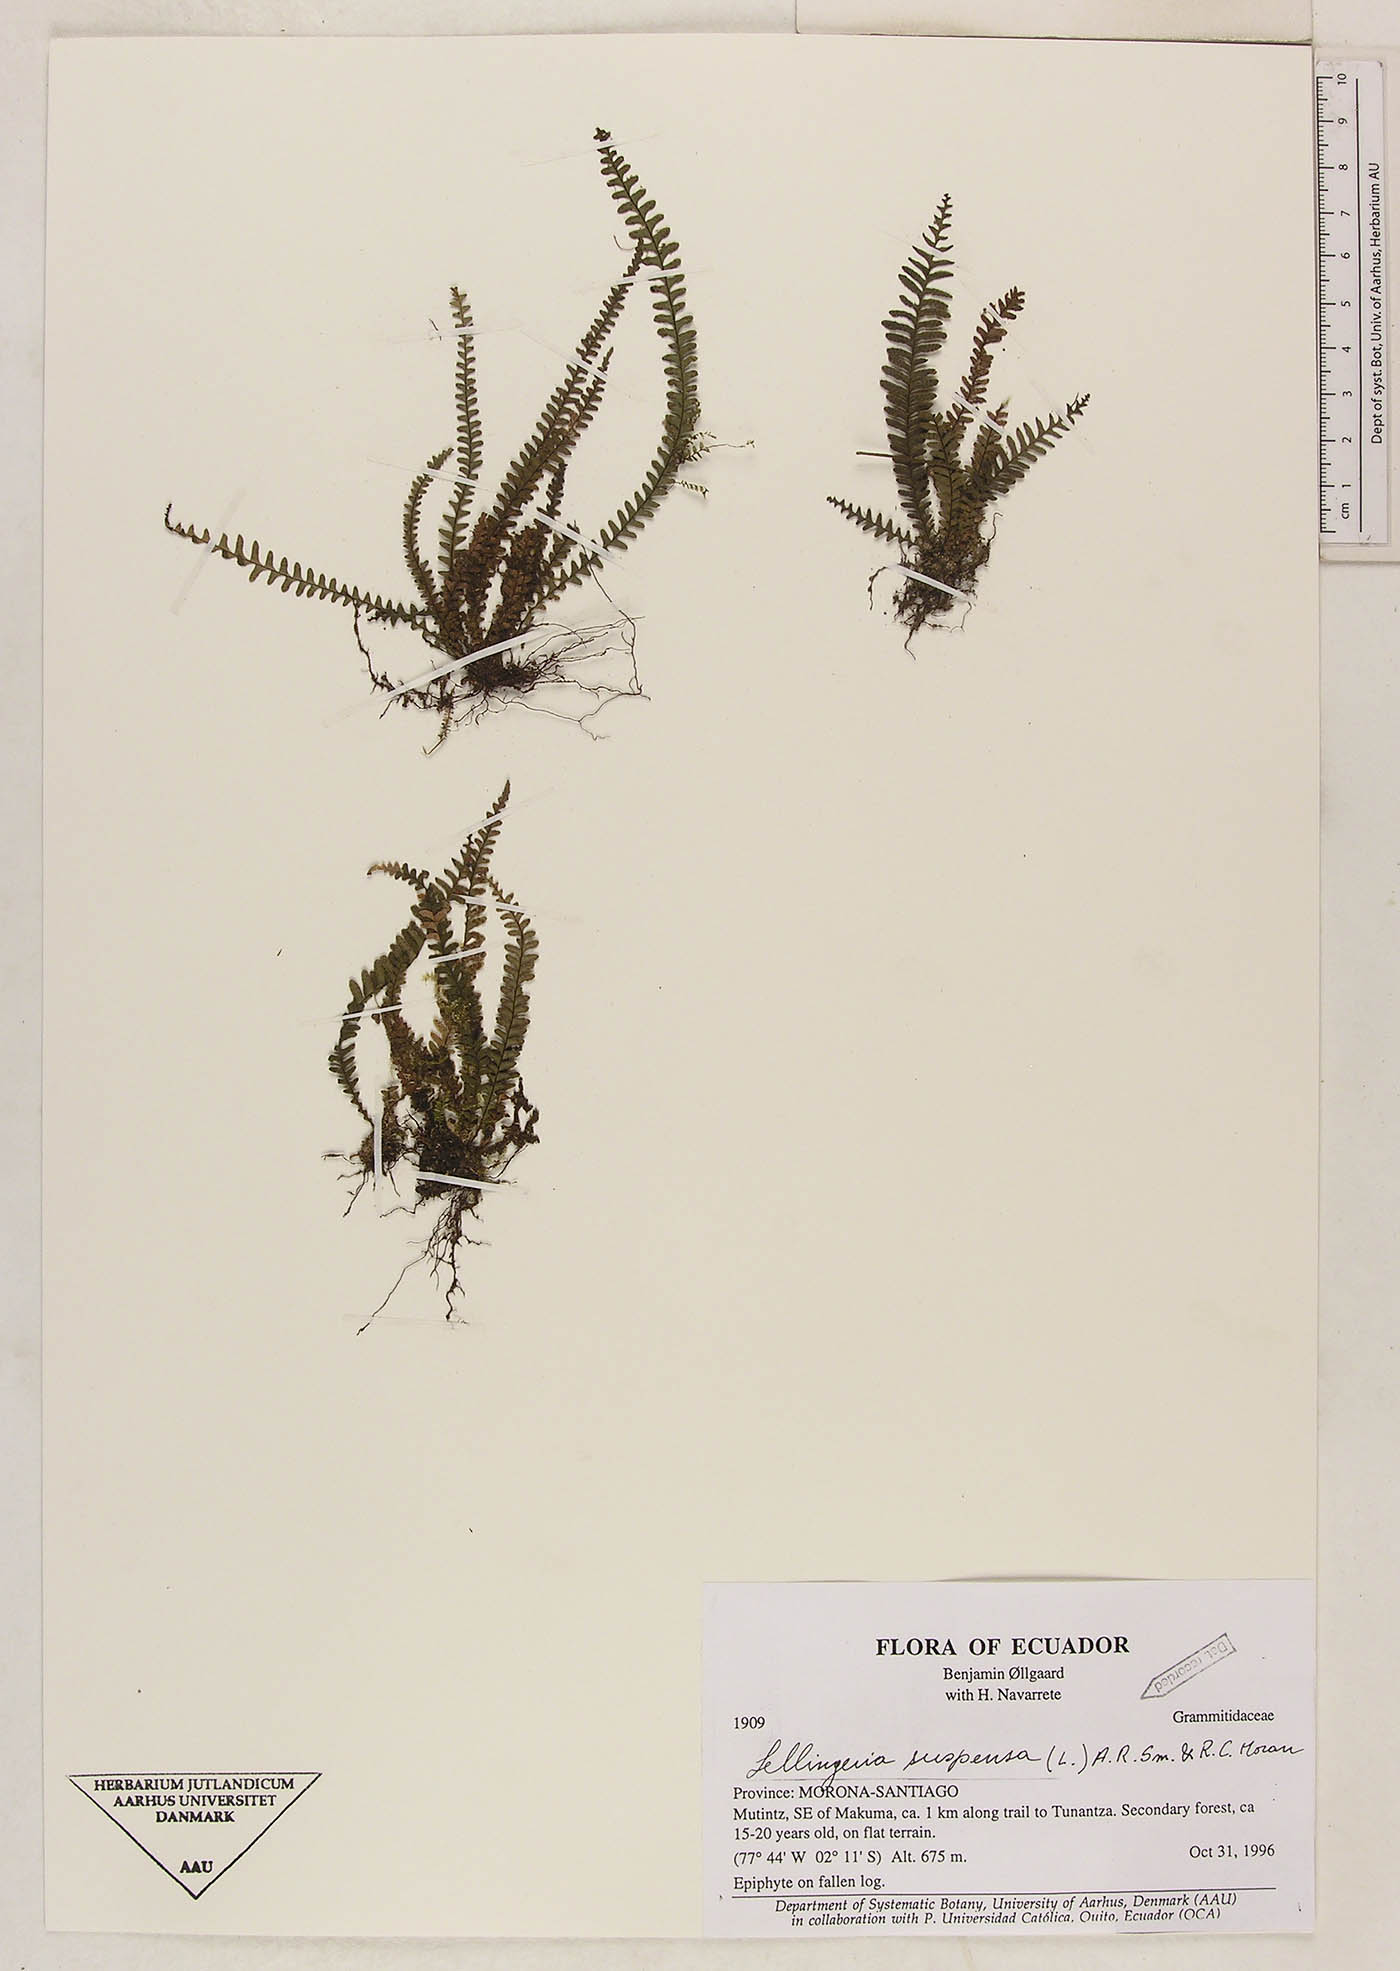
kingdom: Plantae
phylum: Tracheophyta
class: Polypodiopsida
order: Polypodiales
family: Polypodiaceae
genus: Lellingeria
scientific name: Lellingeria suspensa
